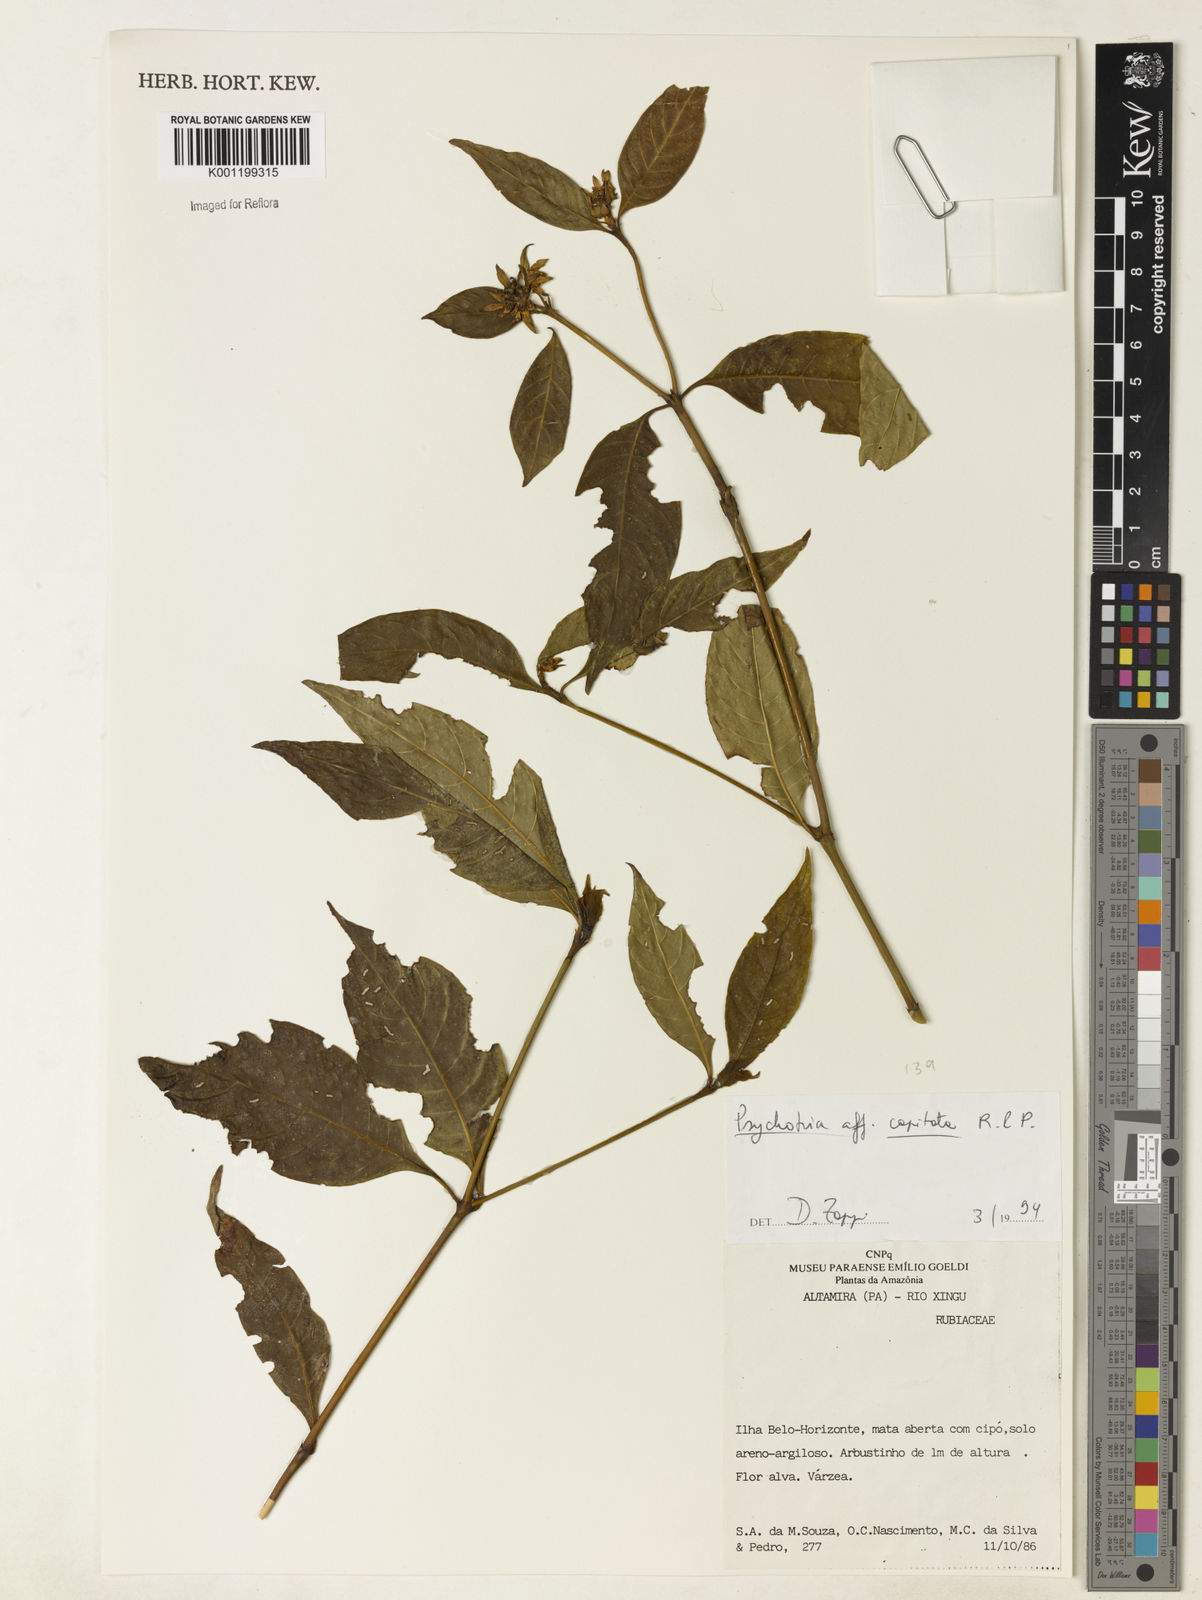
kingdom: Plantae
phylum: Tracheophyta
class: Magnoliopsida
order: Gentianales
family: Rubiaceae
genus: Palicourea
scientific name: Palicourea violacea
